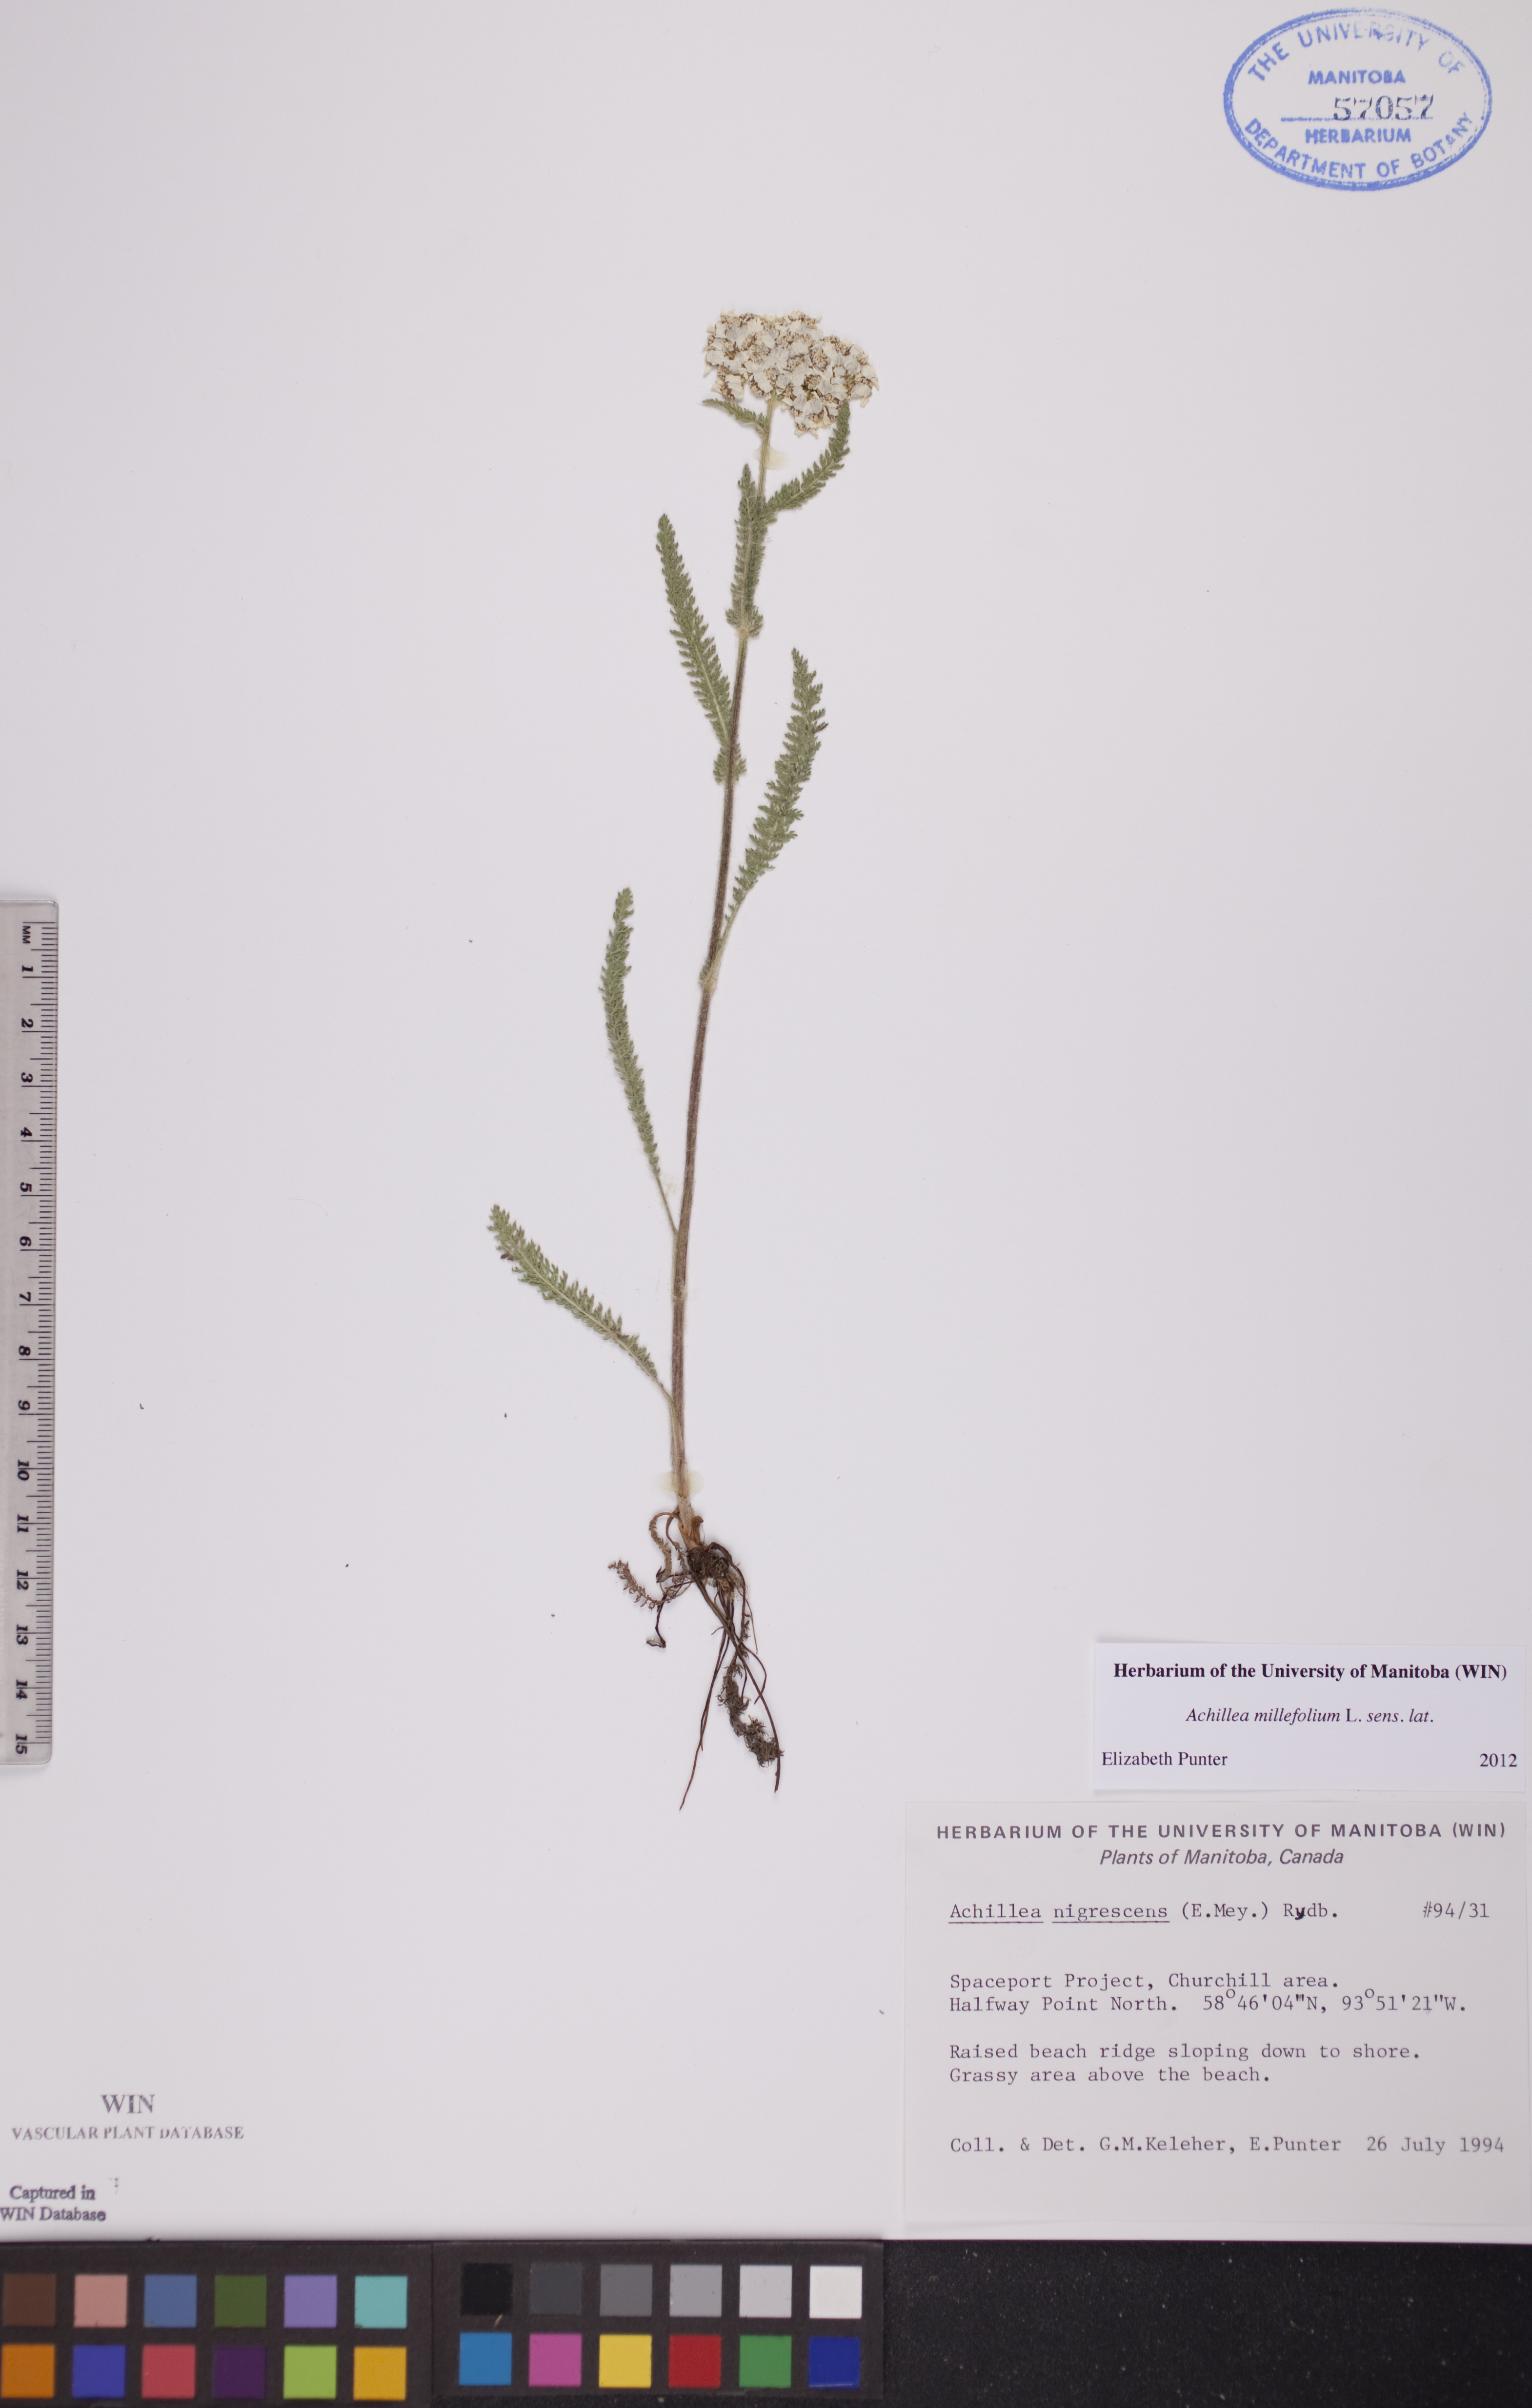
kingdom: Plantae
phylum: Tracheophyta
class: Magnoliopsida
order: Asterales
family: Asteraceae
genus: Achillea
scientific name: Achillea millefolium
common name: Yarrow
